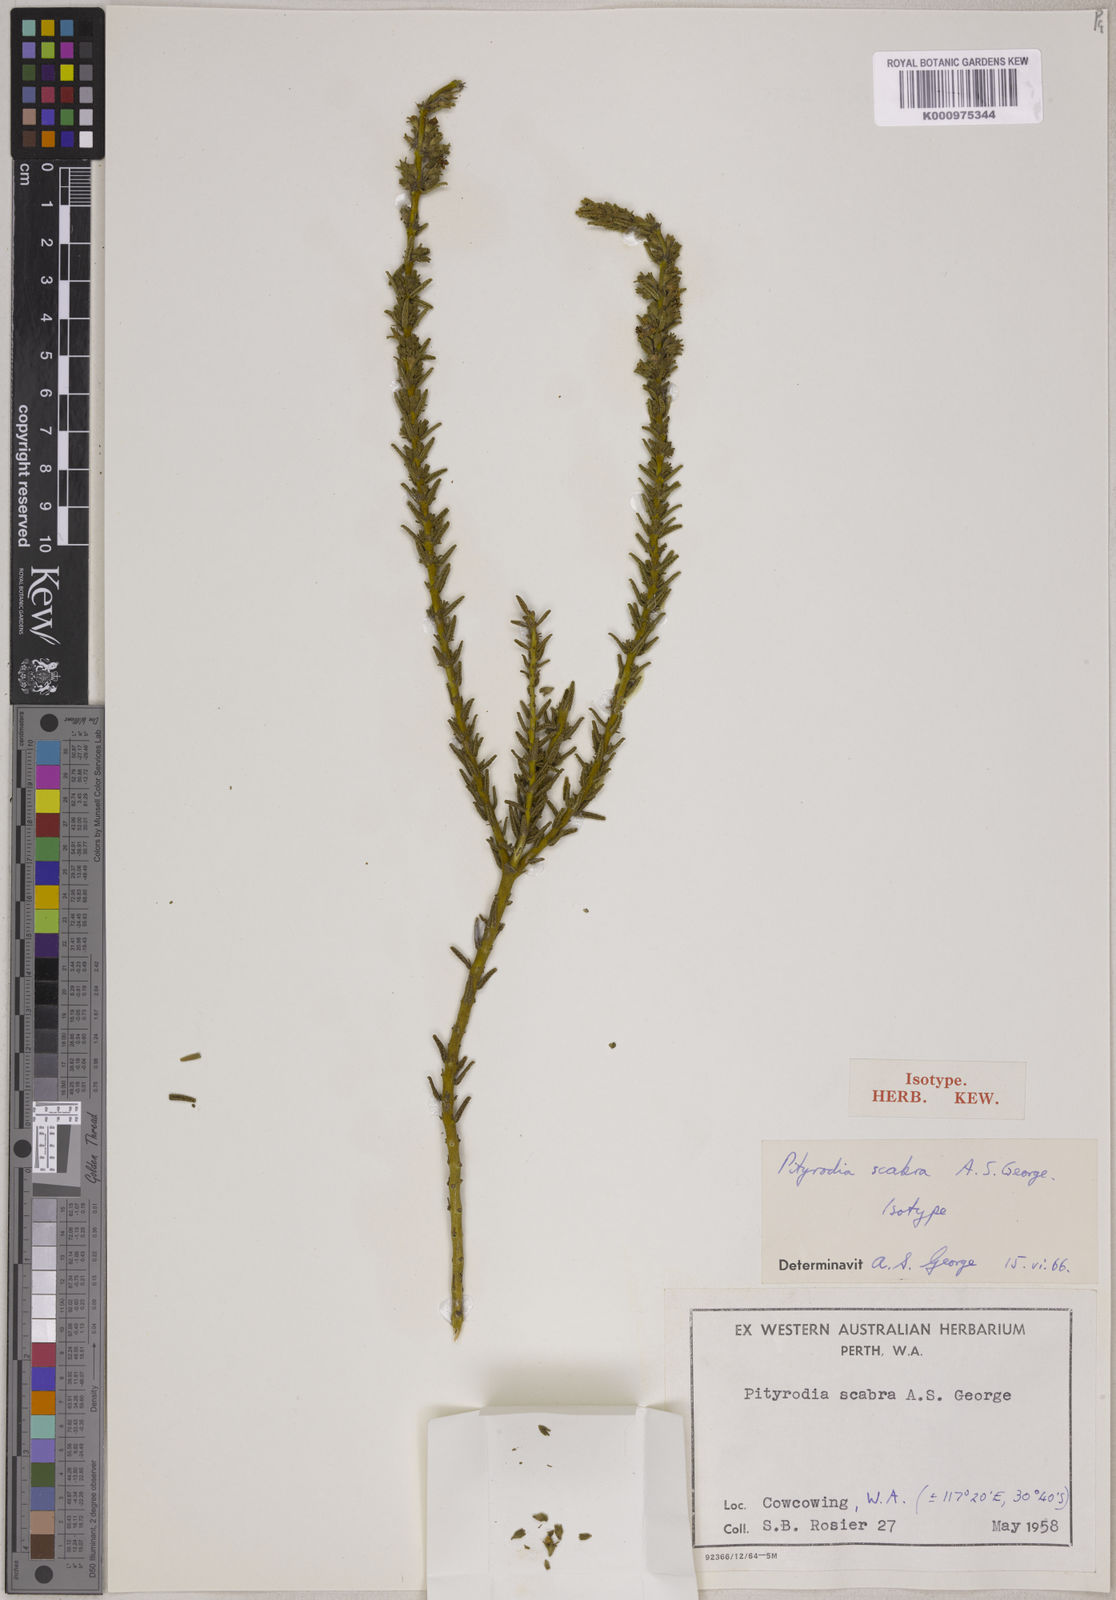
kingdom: Plantae
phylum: Tracheophyta
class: Magnoliopsida
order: Lamiales
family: Lamiaceae
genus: Pityrodia
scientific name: Pityrodia scabra
